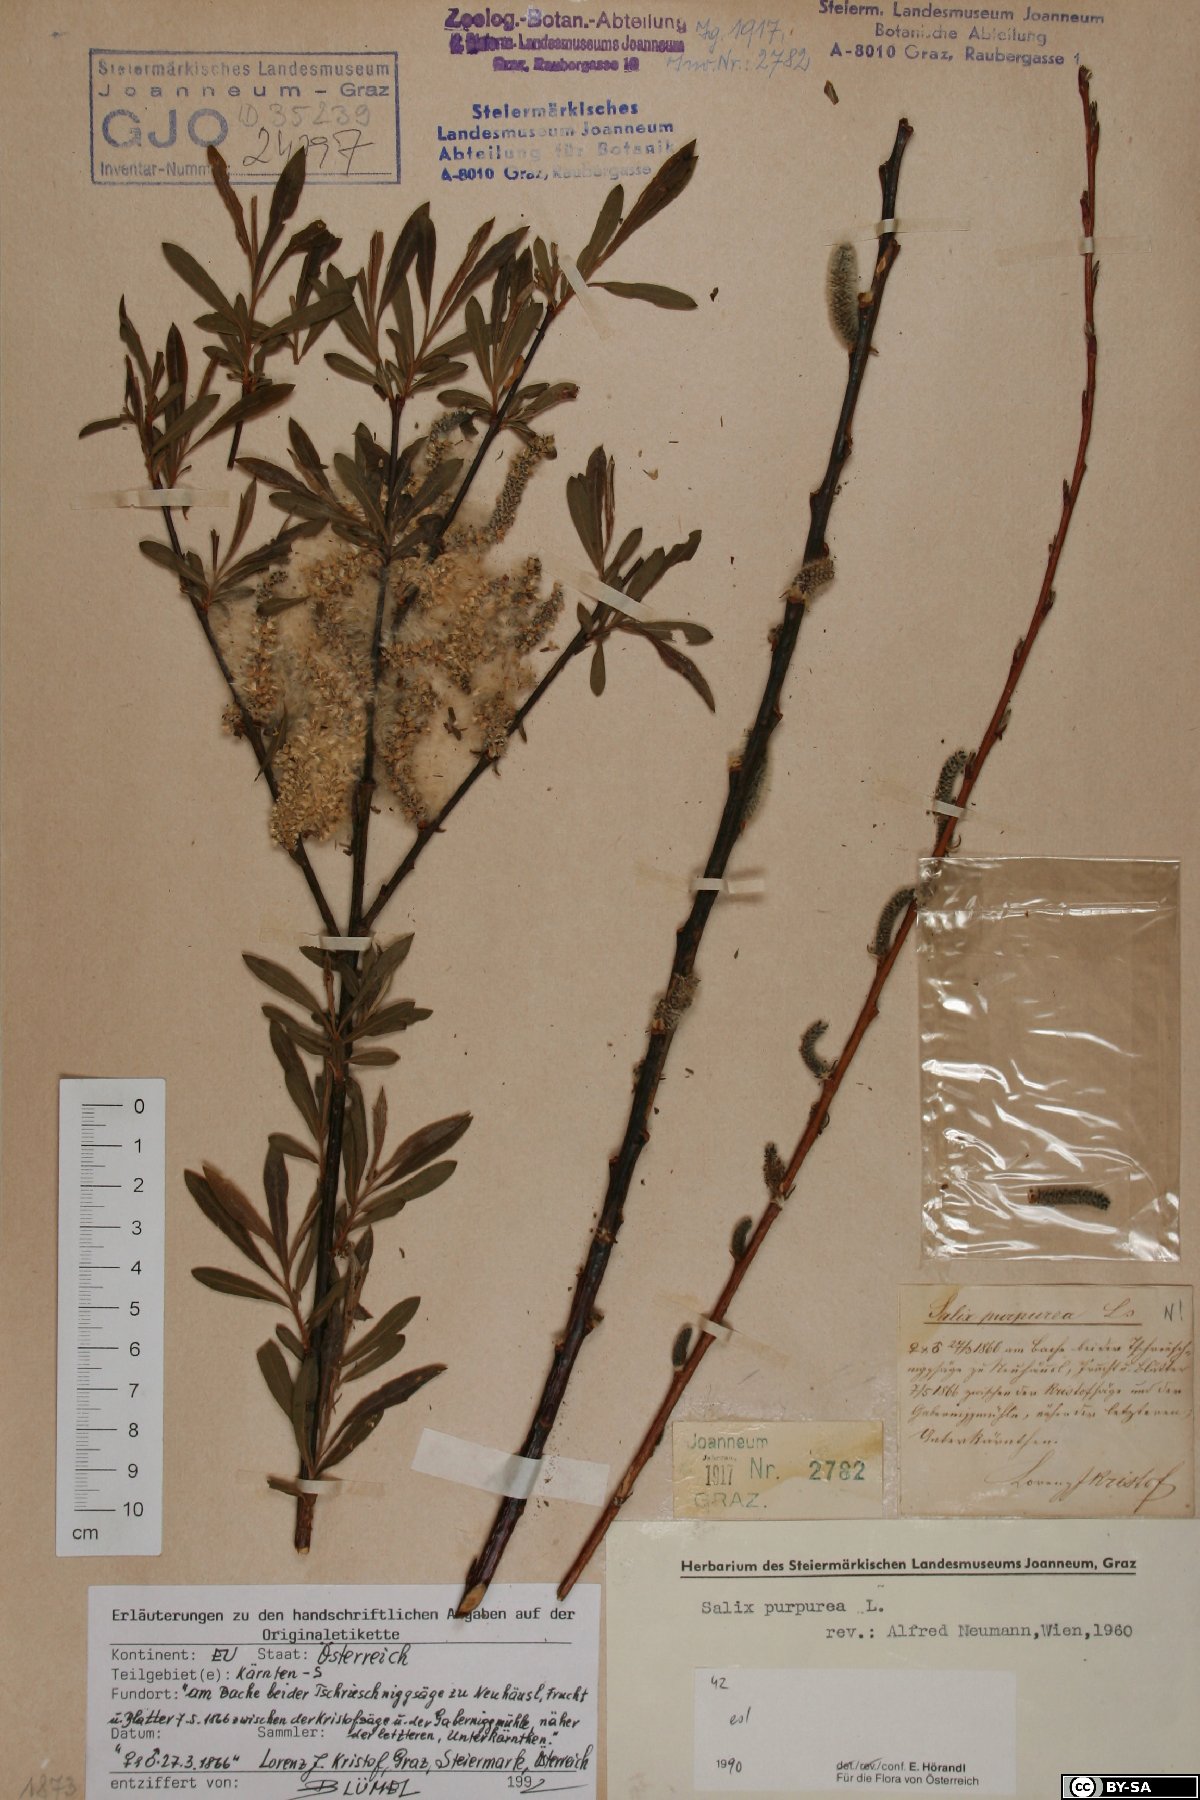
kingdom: Plantae
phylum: Tracheophyta
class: Magnoliopsida
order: Malpighiales
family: Salicaceae
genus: Salix
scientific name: Salix purpurea
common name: Purple willow
